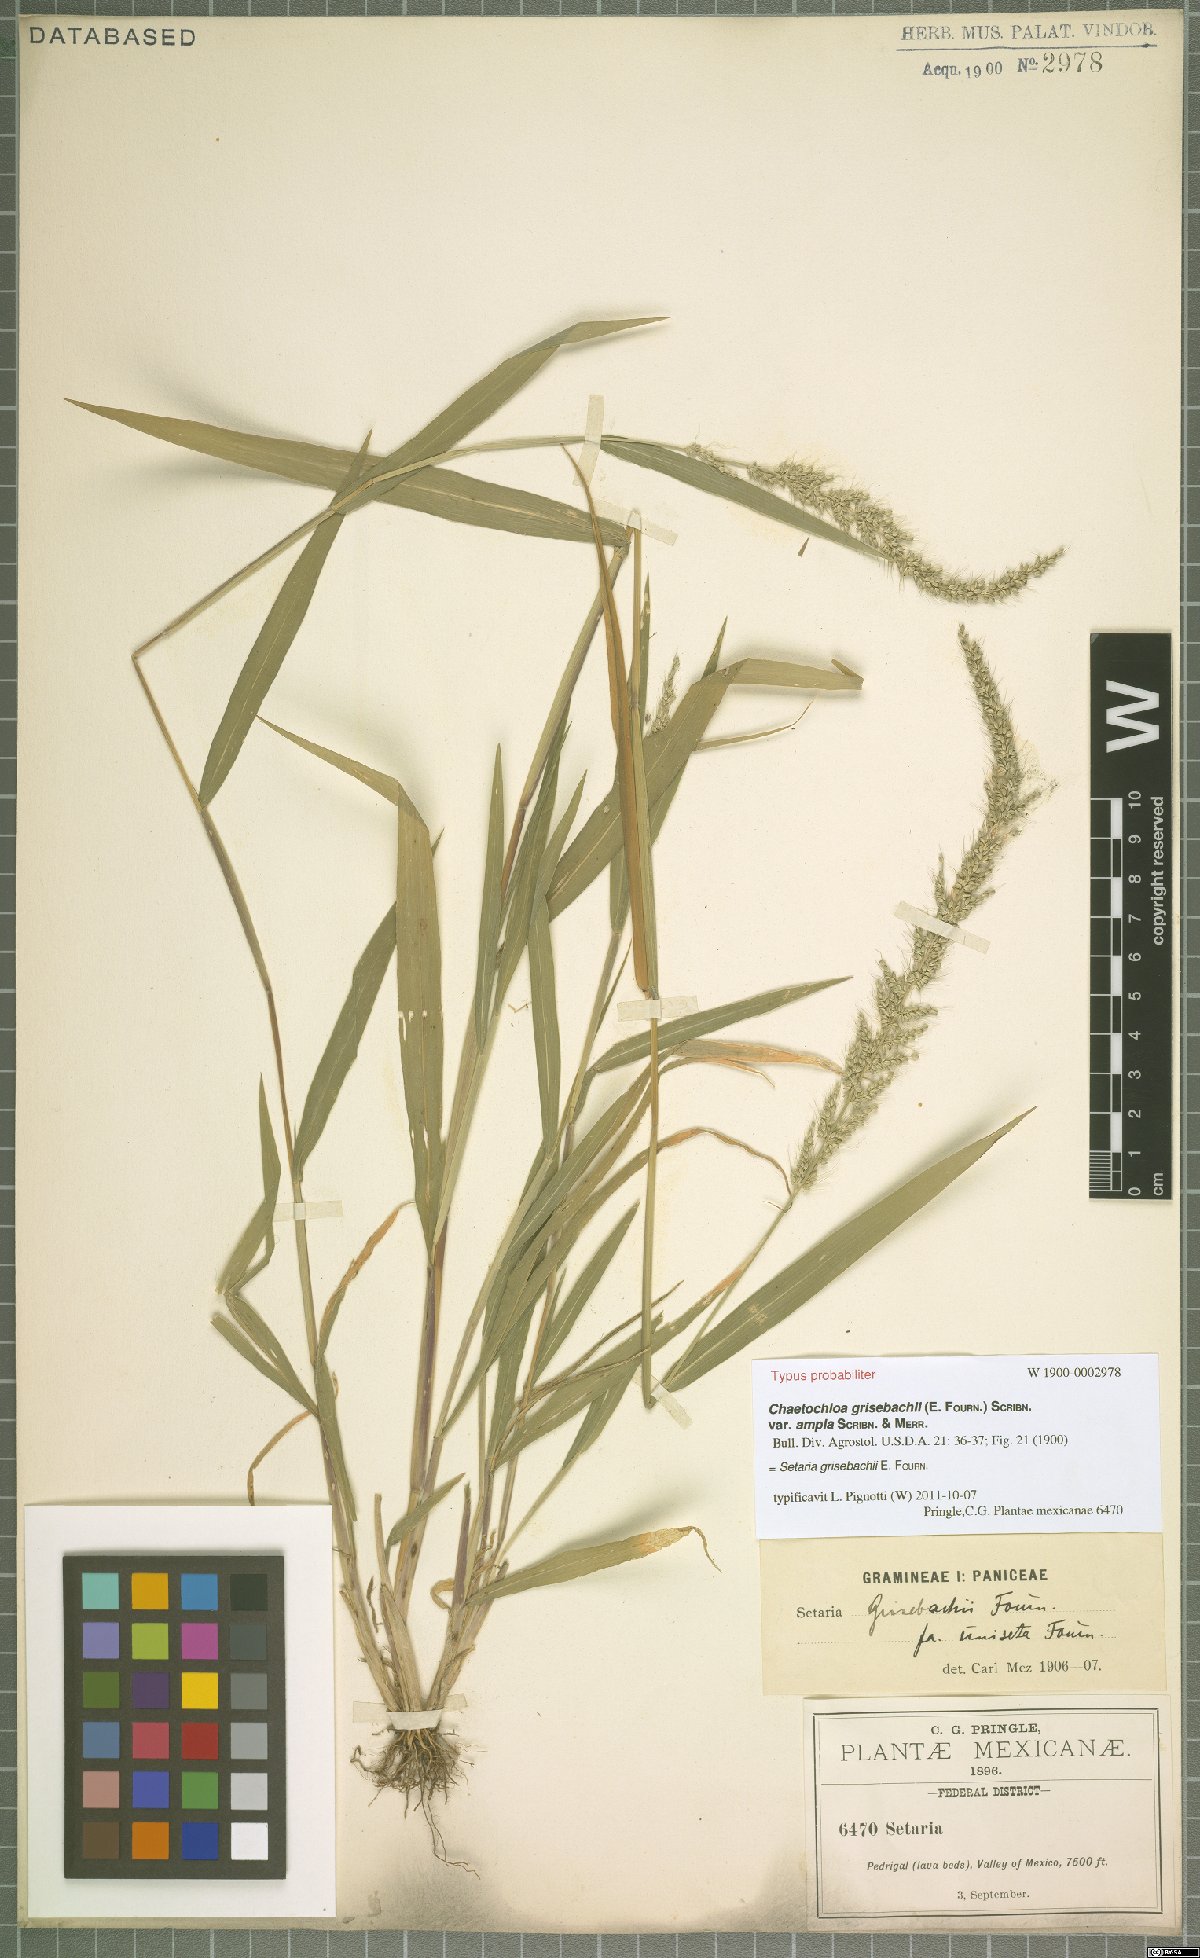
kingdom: Plantae
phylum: Tracheophyta
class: Liliopsida
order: Poales
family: Poaceae
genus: Setaria
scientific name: Setaria grisebachii
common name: Grisebach's bristle grass
